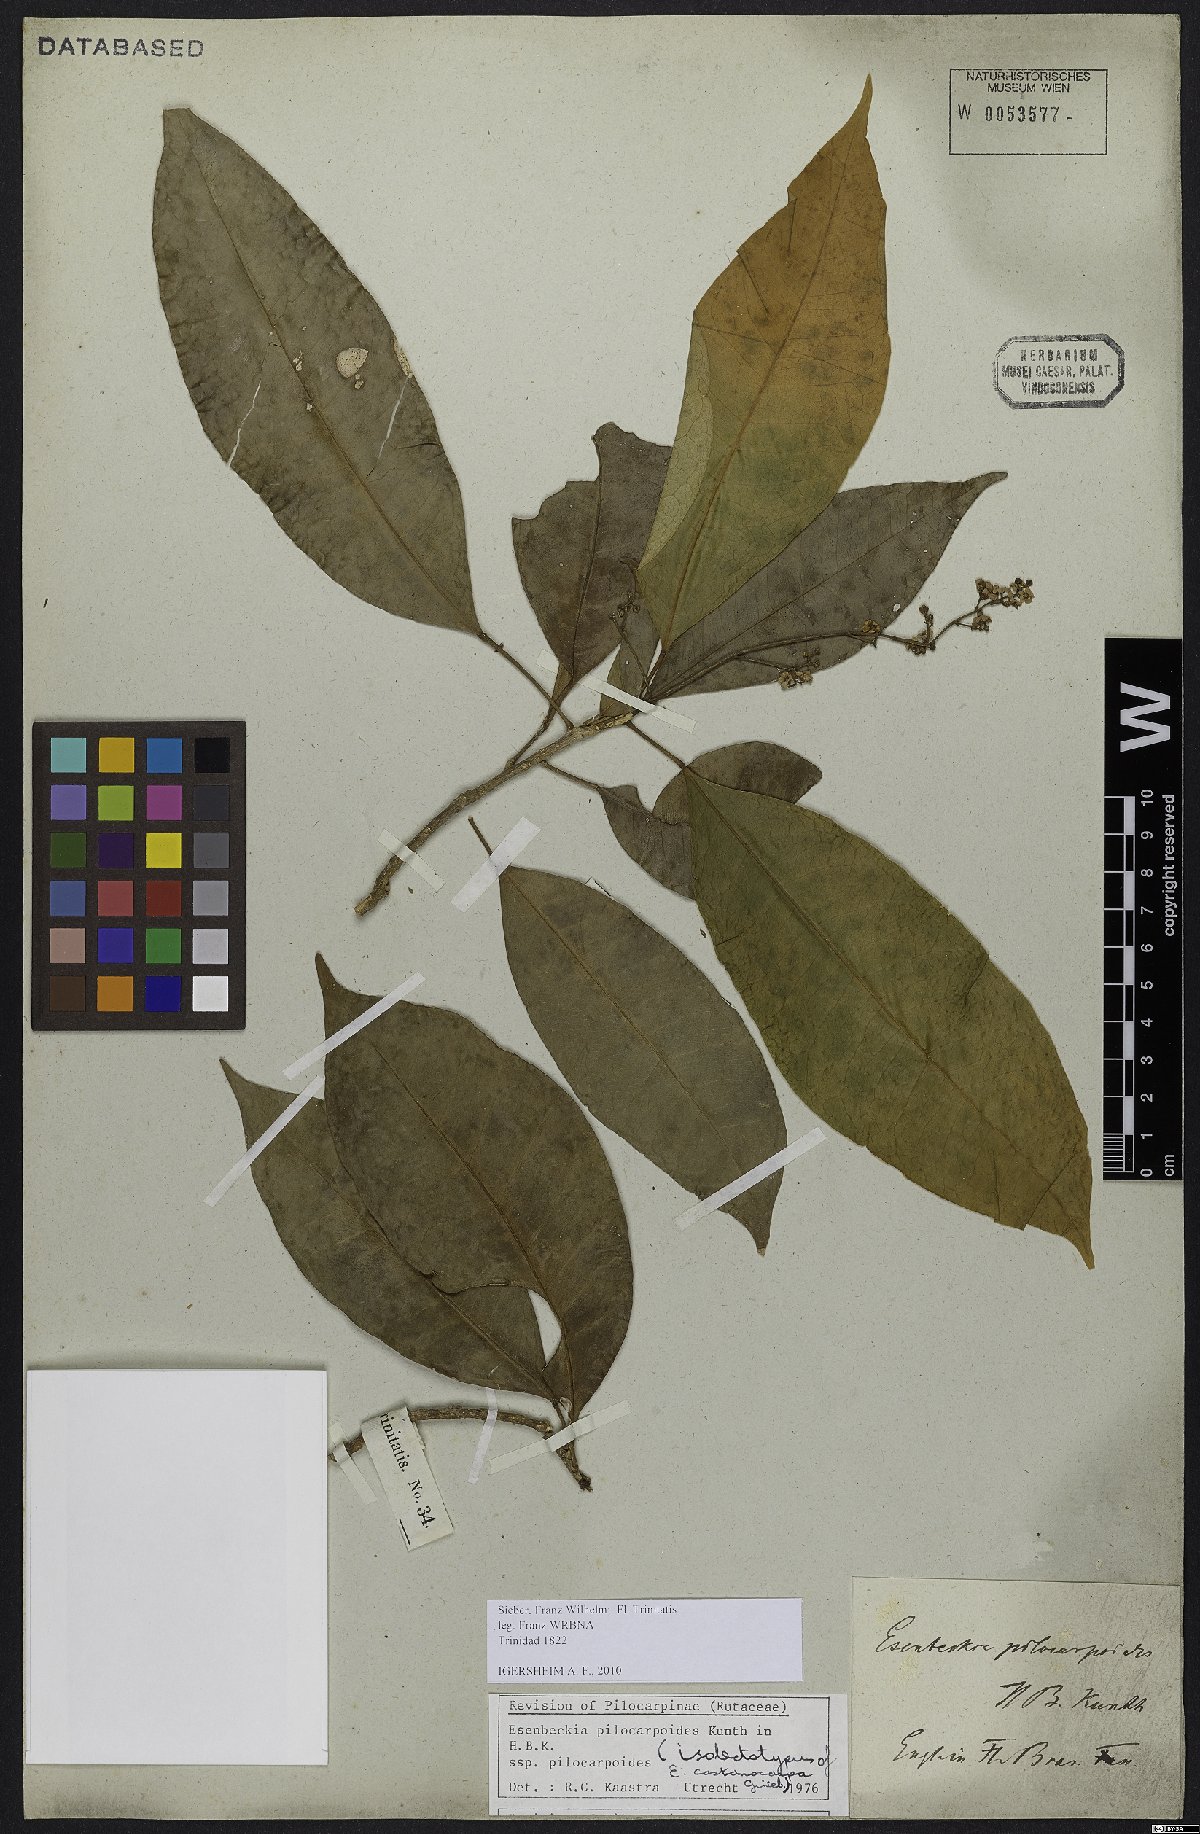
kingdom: Plantae
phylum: Tracheophyta
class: Magnoliopsida
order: Sapindales
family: Rutaceae
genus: Esenbeckia
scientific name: Esenbeckia pilocarpoides
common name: Pilosefruit esenbeckia
